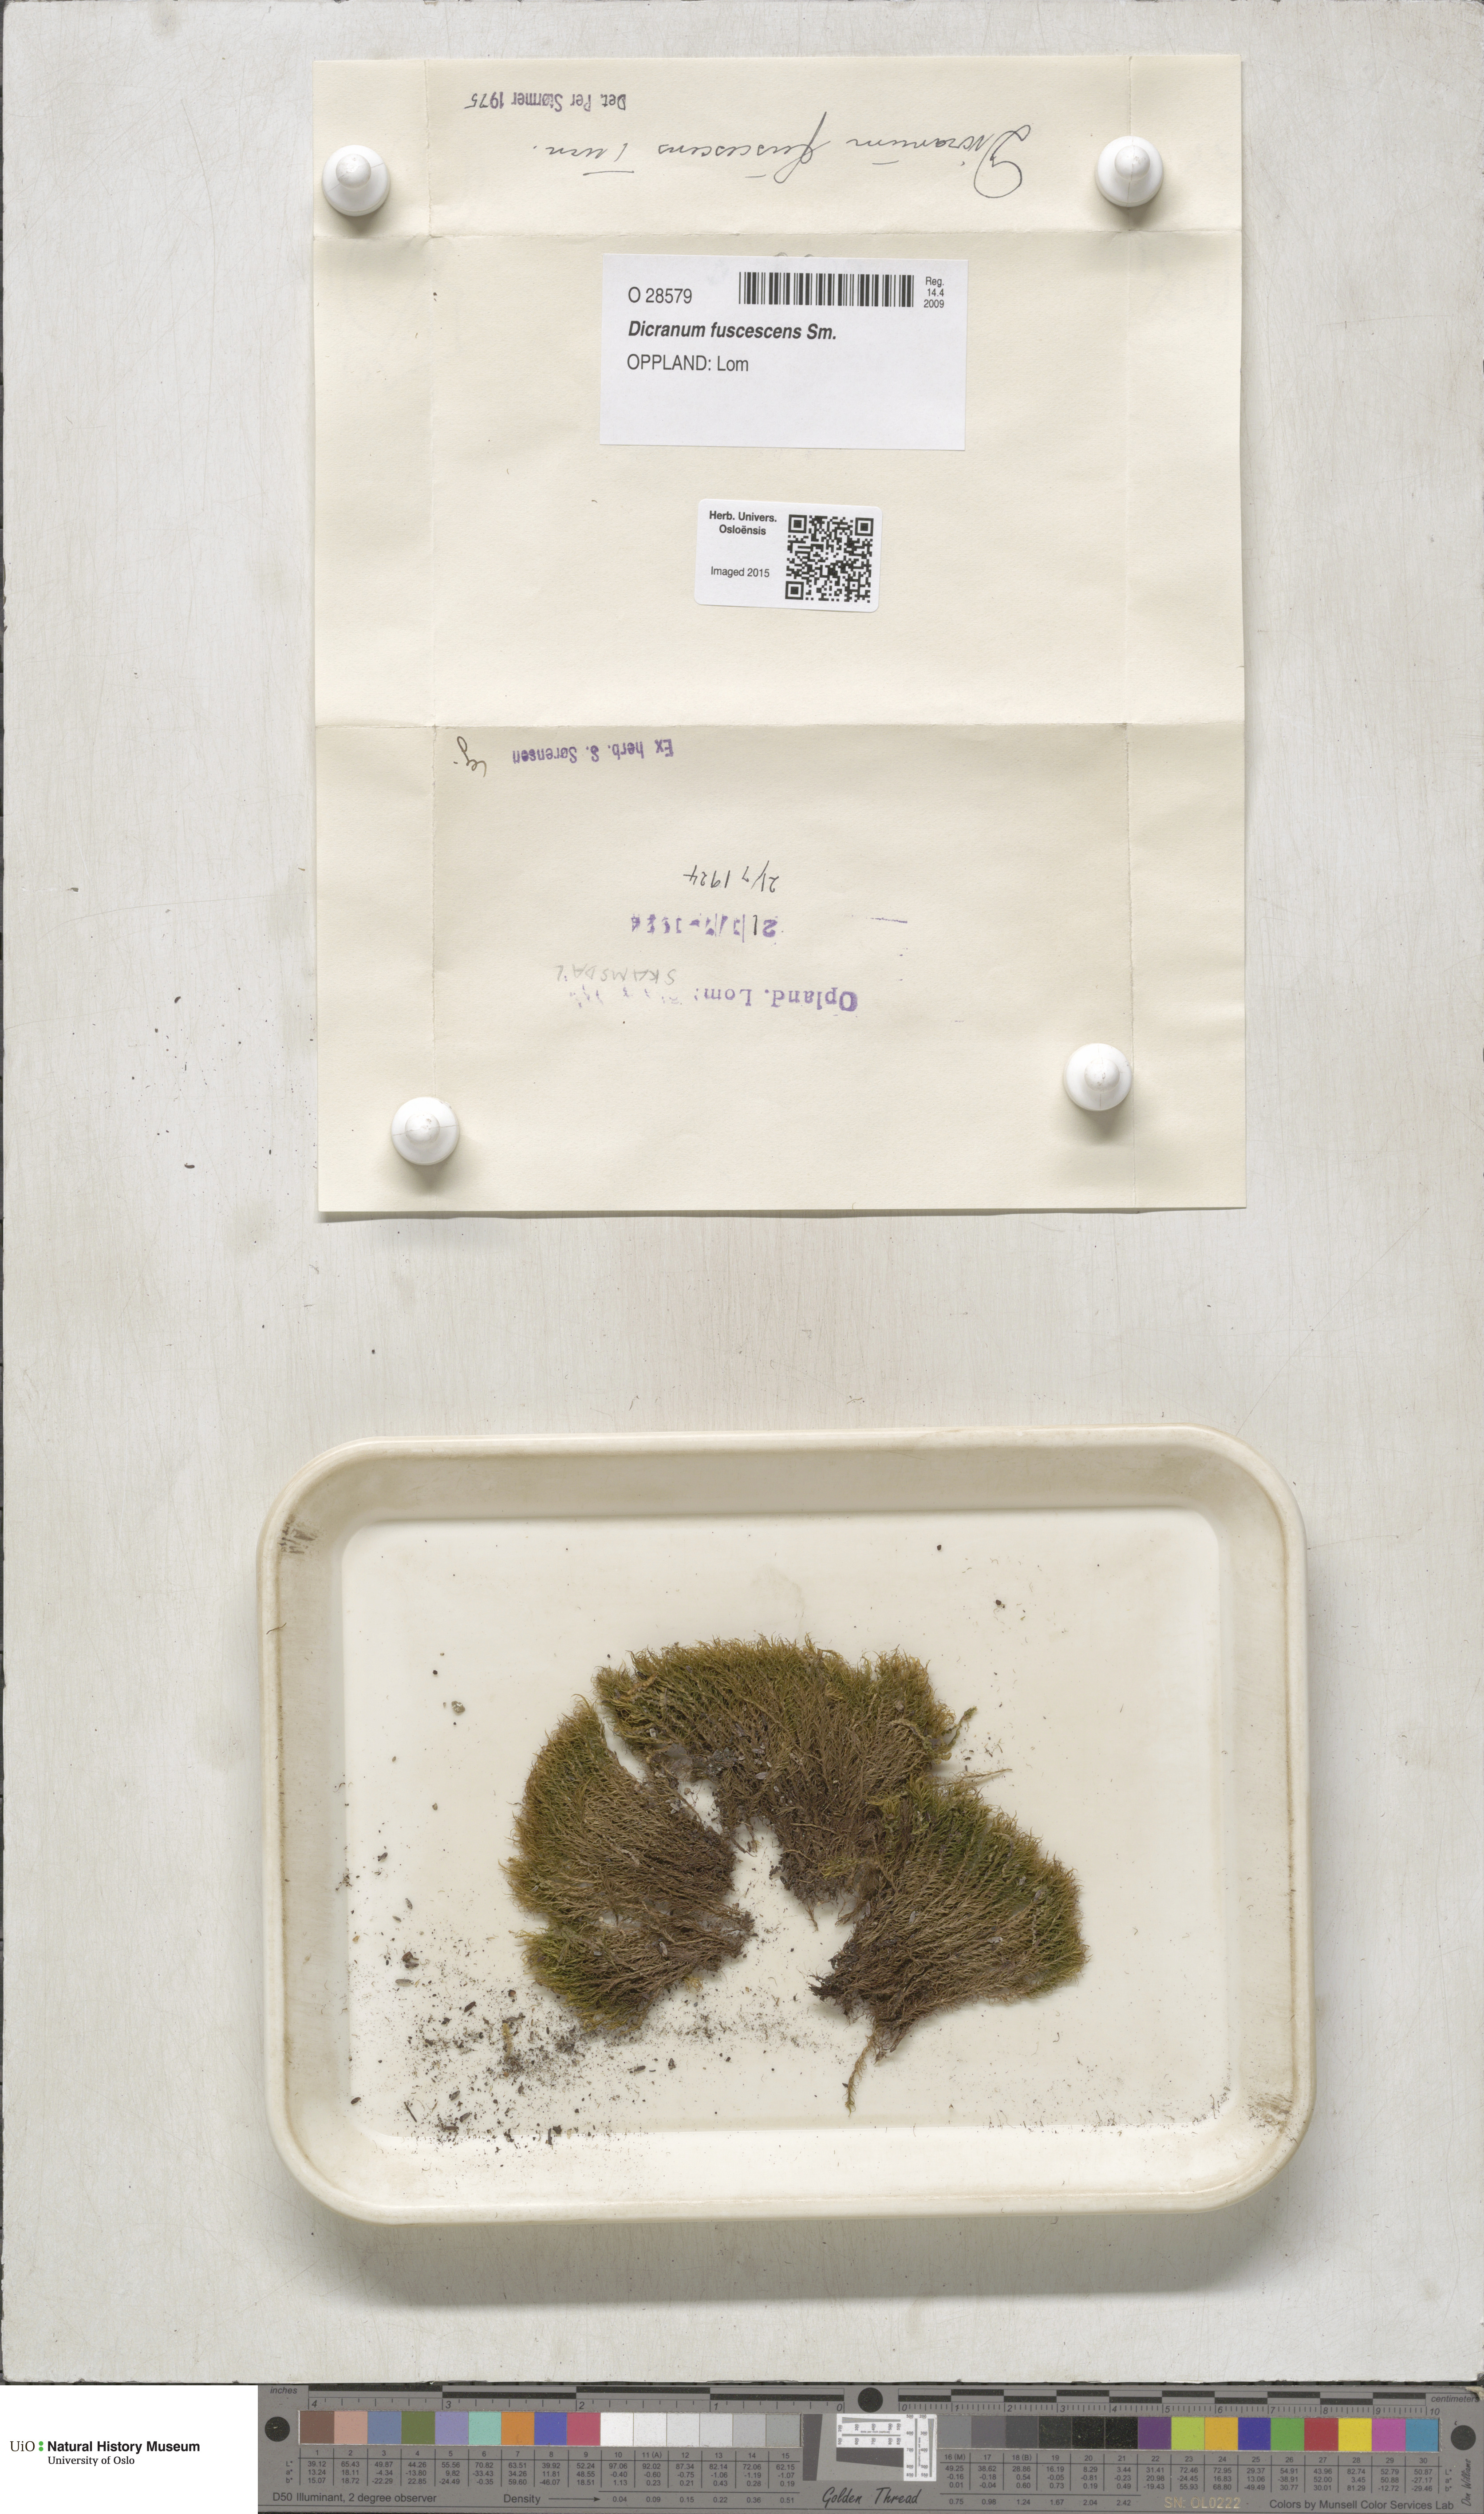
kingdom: Plantae
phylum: Bryophyta
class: Bryopsida
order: Dicranales
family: Dicranaceae
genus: Dicranum
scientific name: Dicranum fuscescens
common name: Curly heron's-bill moss
